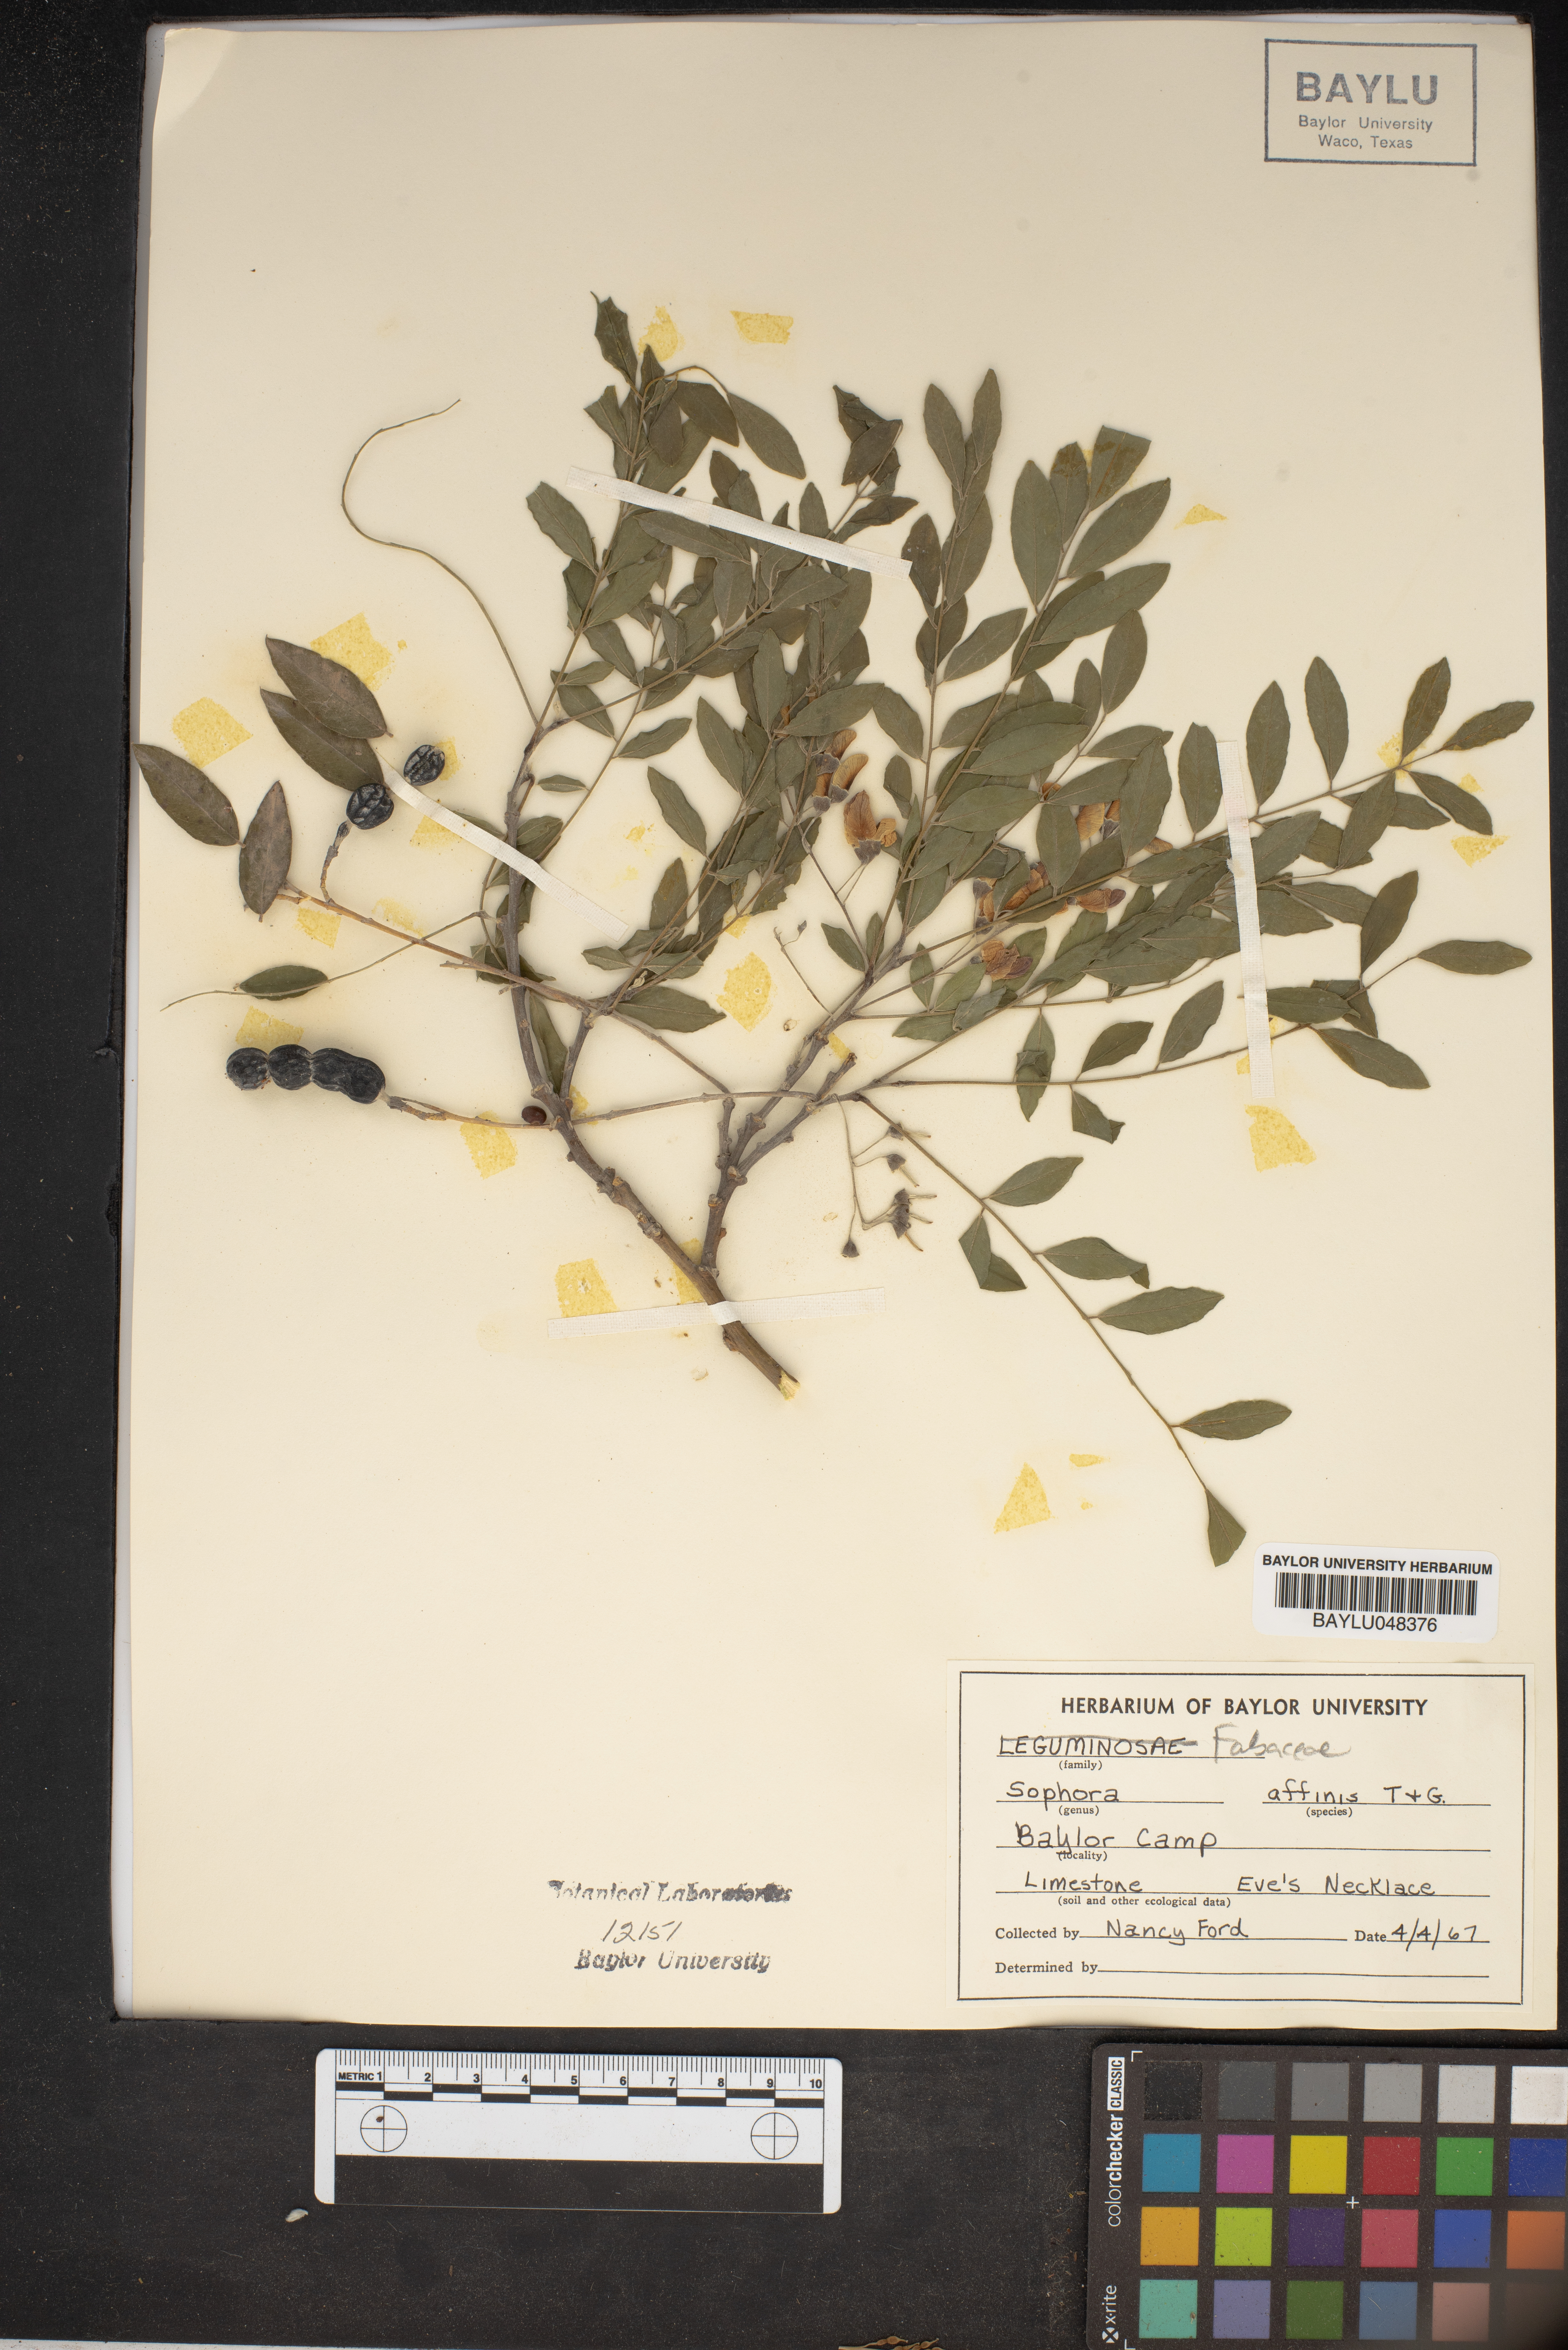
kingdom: Plantae
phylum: Tracheophyta
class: Magnoliopsida
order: Fabales
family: Fabaceae
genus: Styphnolobium
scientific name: Styphnolobium affine
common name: Texas sophora
